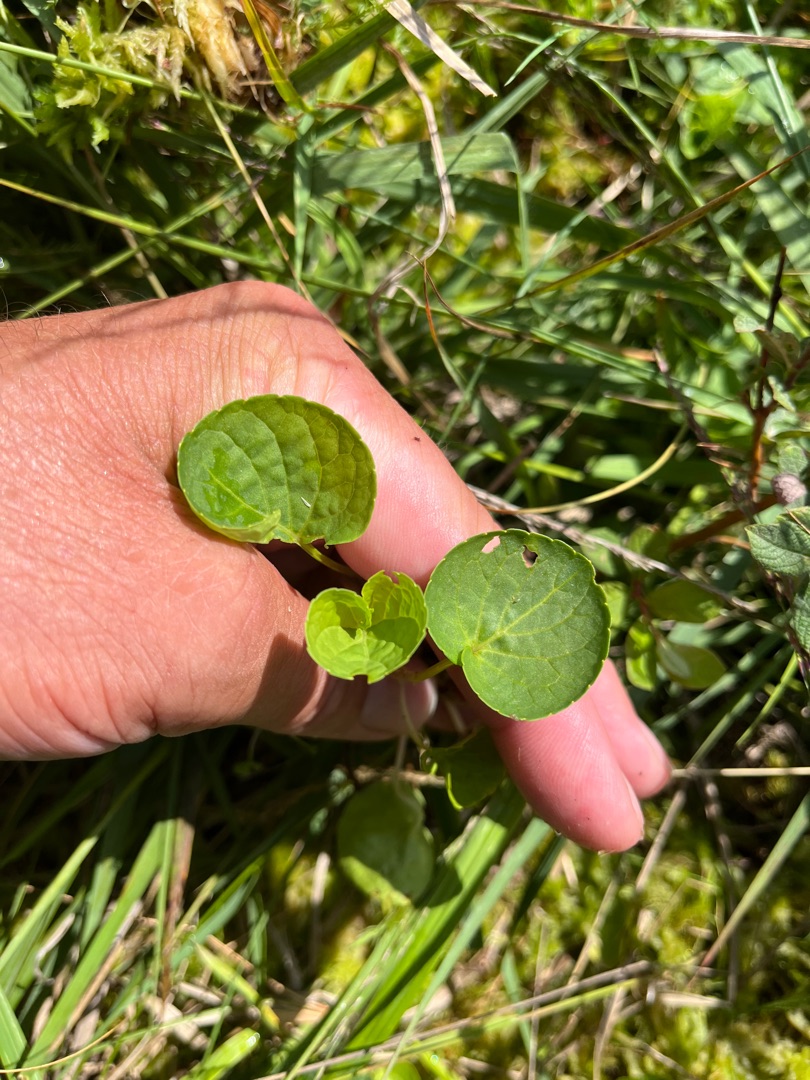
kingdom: Plantae
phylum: Tracheophyta
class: Magnoliopsida
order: Malpighiales
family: Violaceae
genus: Viola
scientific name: Viola palustris
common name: Eng-viol
